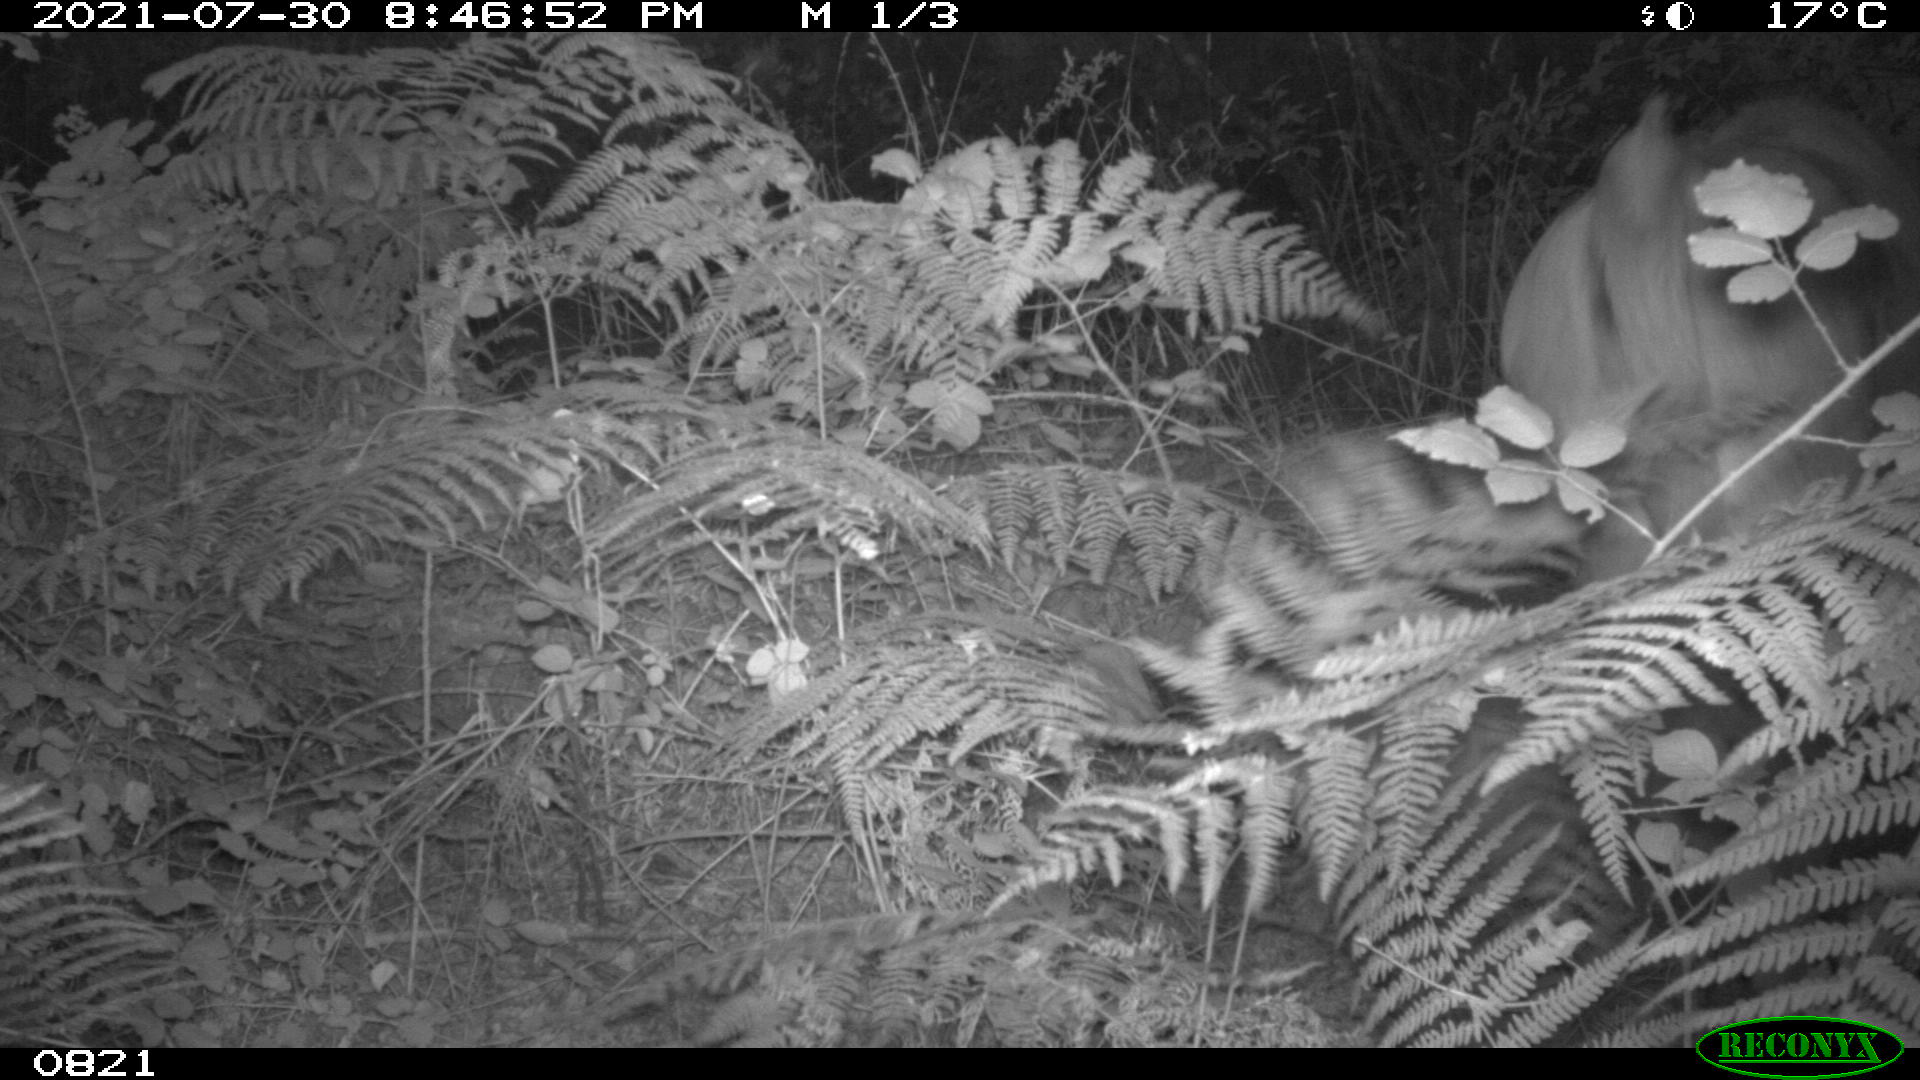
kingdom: Animalia
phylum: Chordata
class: Mammalia
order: Artiodactyla
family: Bovidae
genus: Bos
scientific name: Bos taurus
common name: Domesticated cattle
